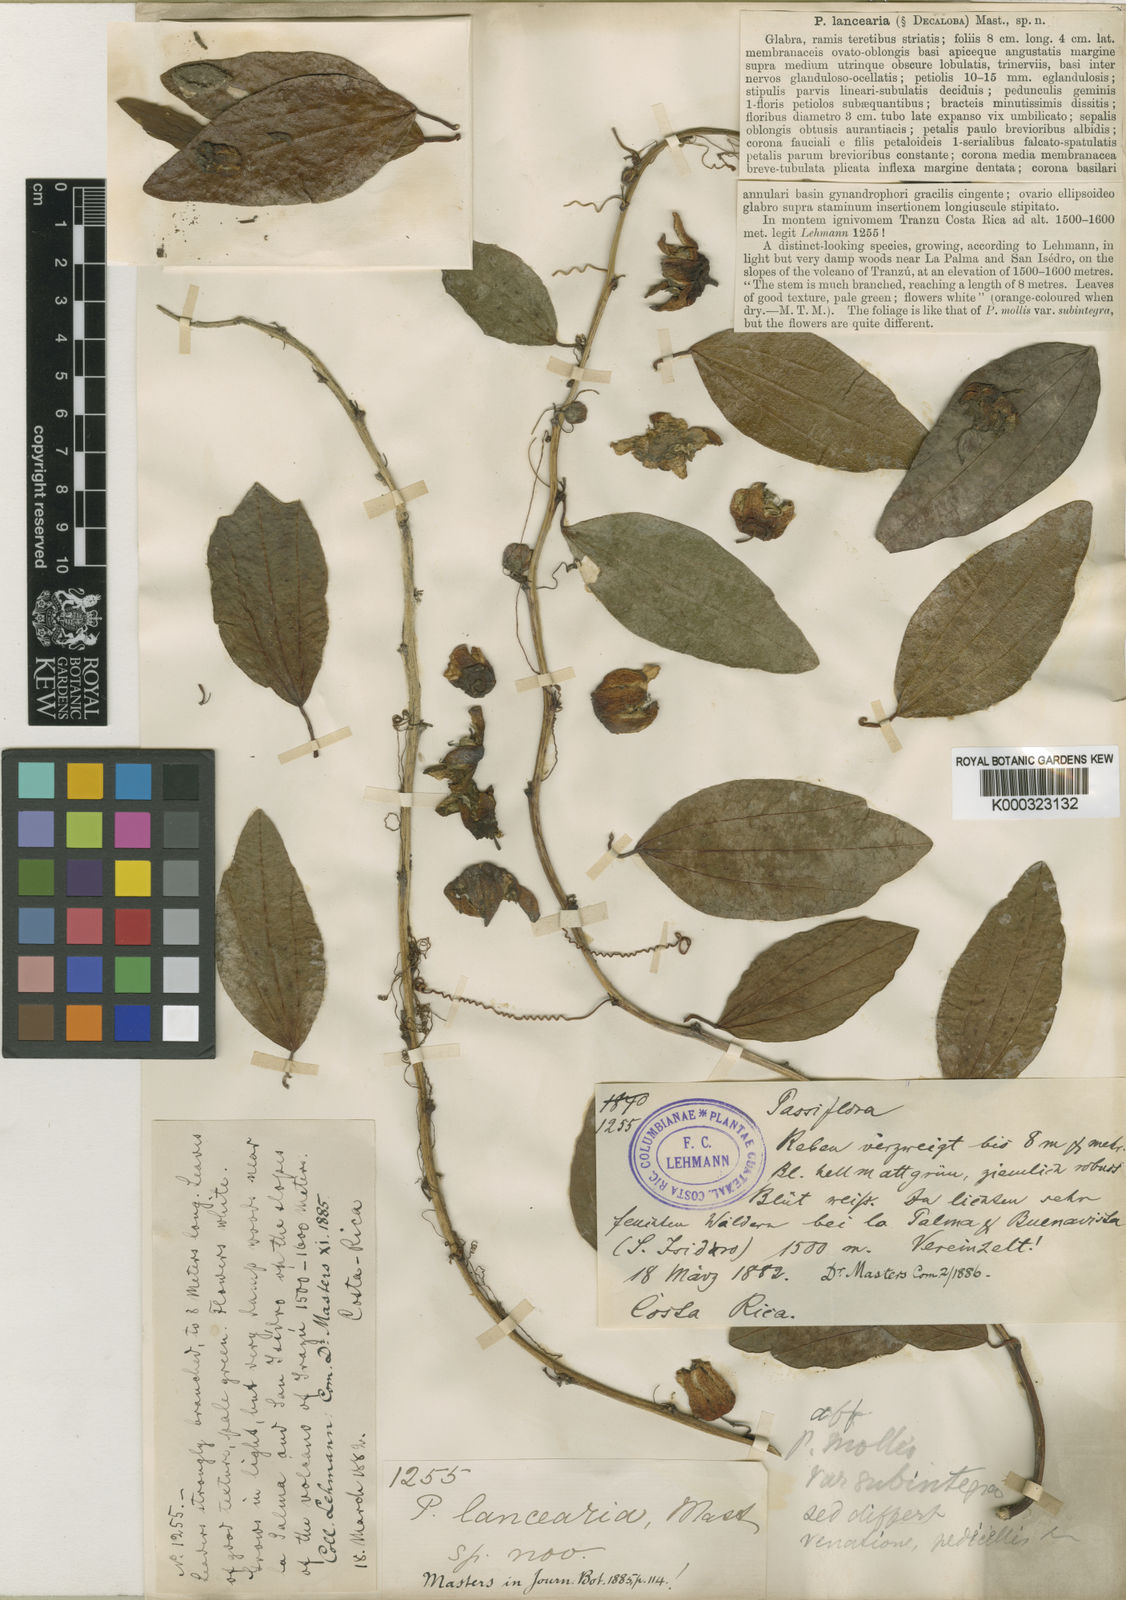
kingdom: Plantae
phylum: Tracheophyta
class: Magnoliopsida
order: Malpighiales
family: Passifloraceae
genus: Passiflora
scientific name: Passiflora lancearia
